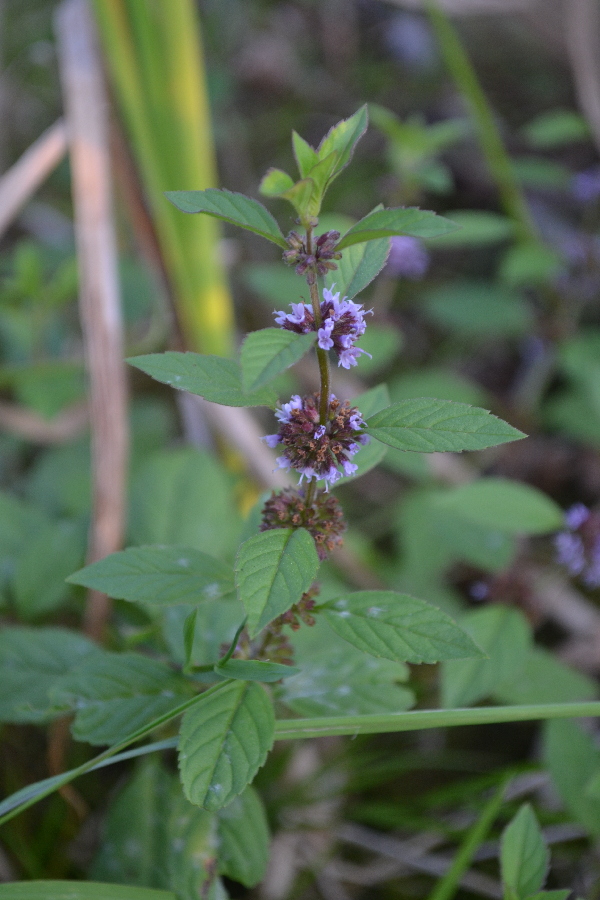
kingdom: Plantae
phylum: Tracheophyta
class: Magnoliopsida
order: Lamiales
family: Lamiaceae
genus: Mentha
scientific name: Mentha arvensis
